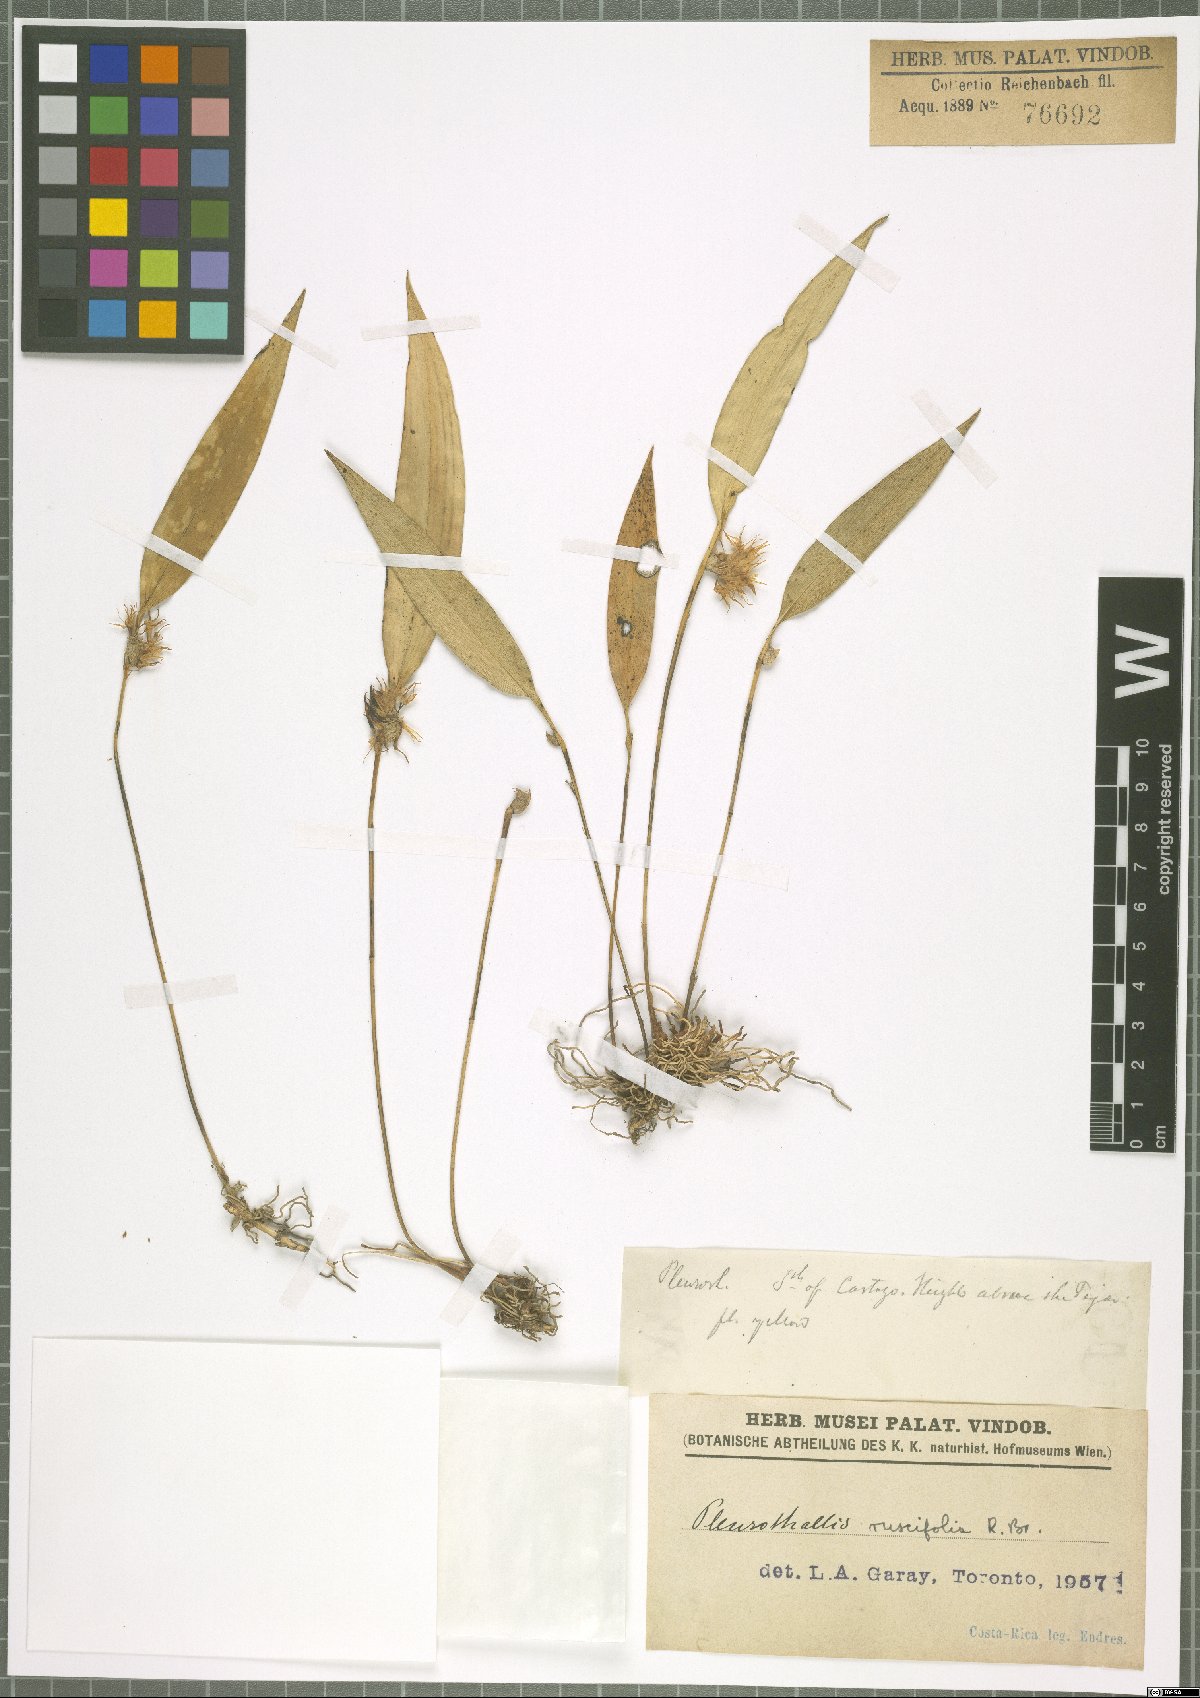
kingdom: Plantae
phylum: Tracheophyta
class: Liliopsida
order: Asparagales
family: Orchidaceae
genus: Pleurothallis
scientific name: Pleurothallis ruscifolia
